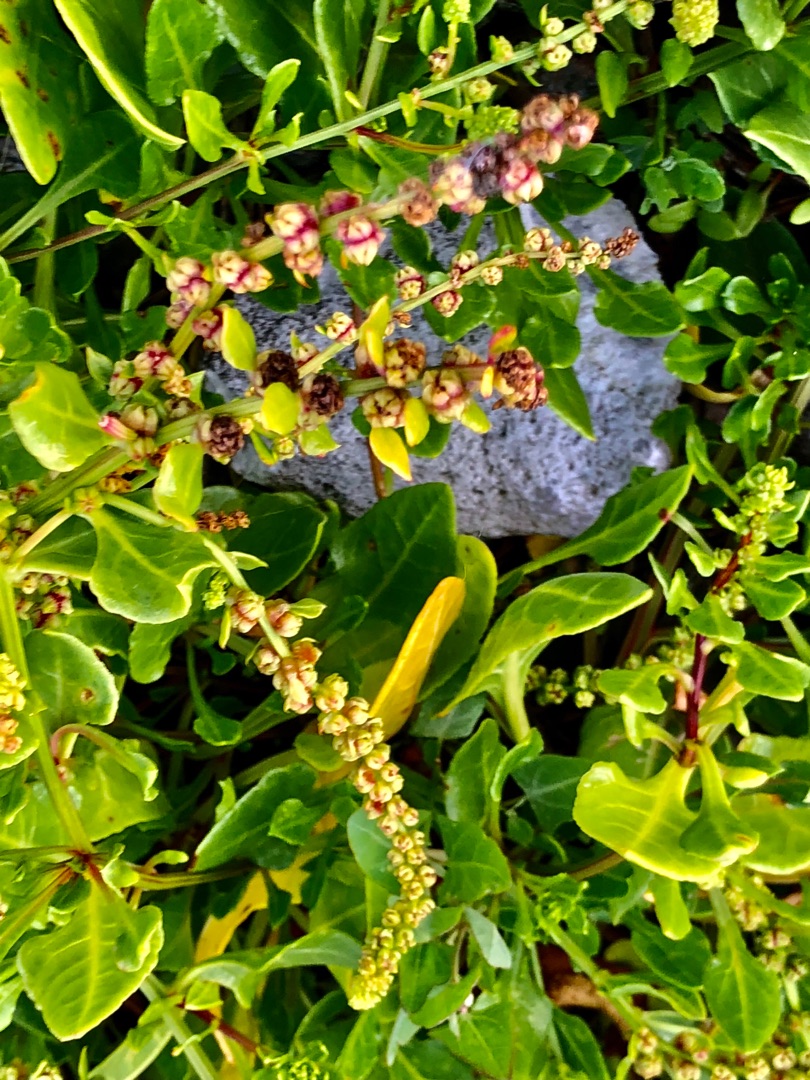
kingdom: Plantae
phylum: Tracheophyta
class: Magnoliopsida
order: Caryophyllales
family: Amaranthaceae
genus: Beta
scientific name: Beta maritima
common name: Strand-bede
